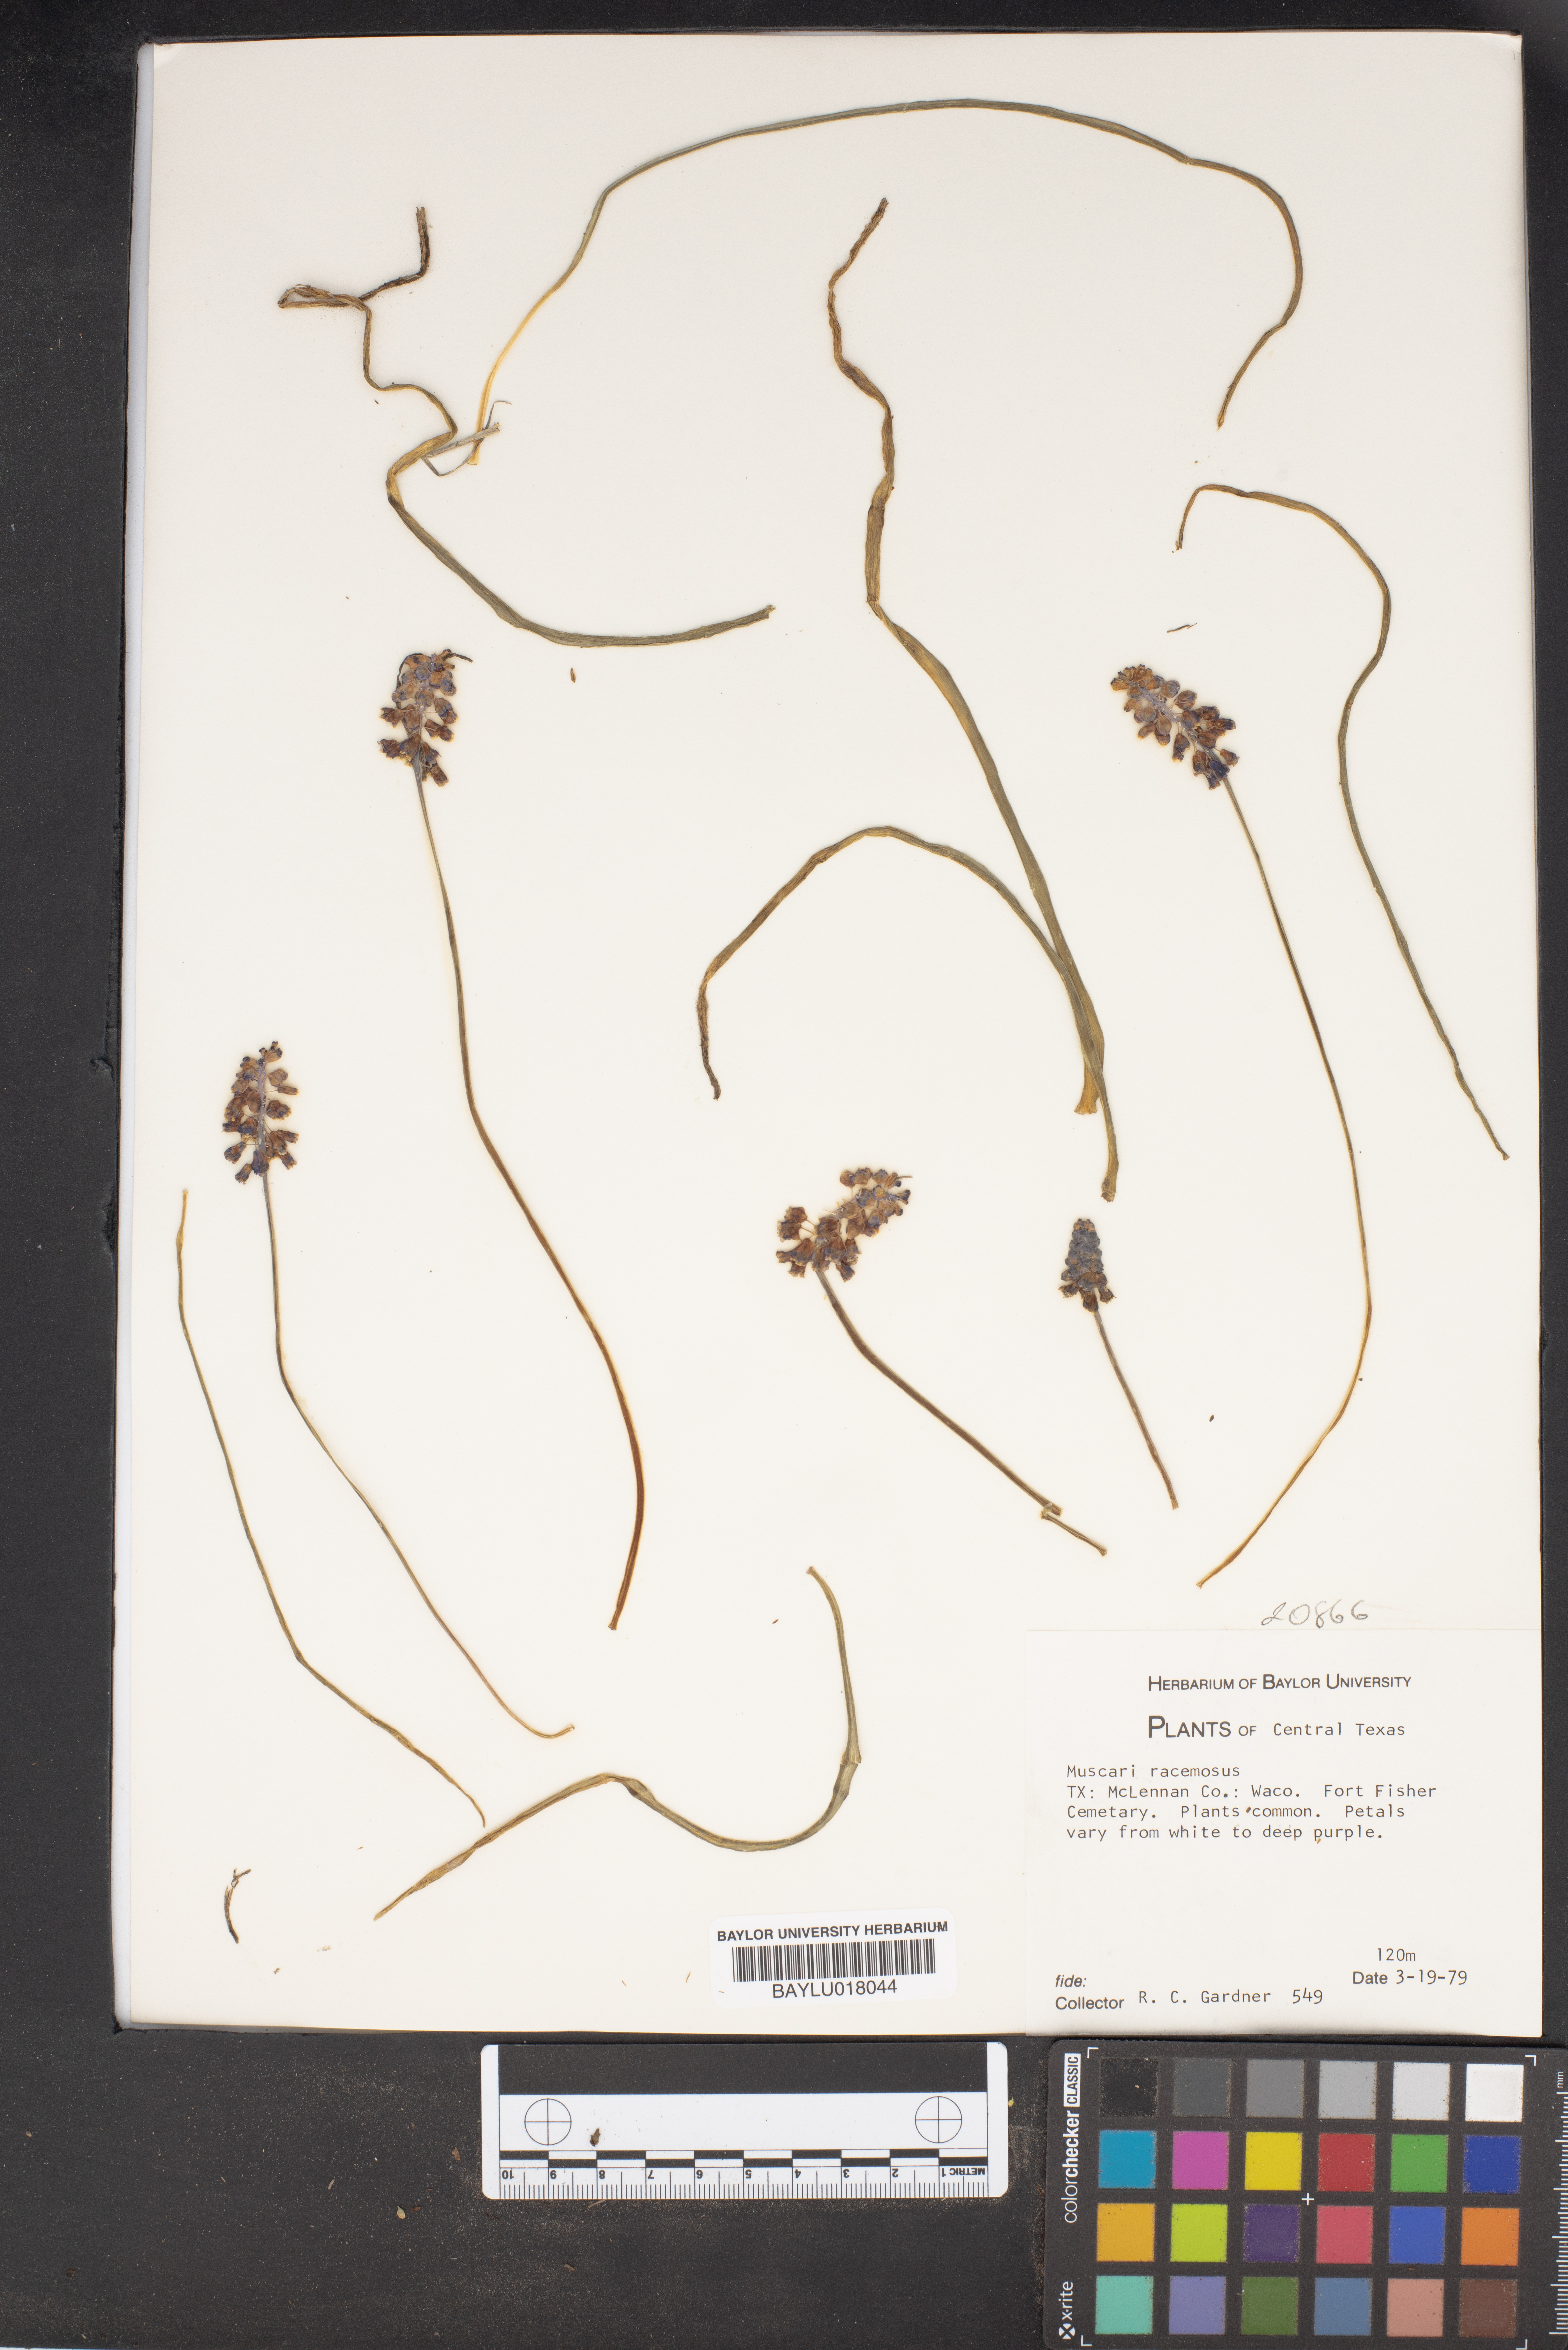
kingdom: Plantae
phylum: Tracheophyta
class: Liliopsida
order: Asparagales
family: Asparagaceae
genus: Muscarimia
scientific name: Muscarimia muscari
